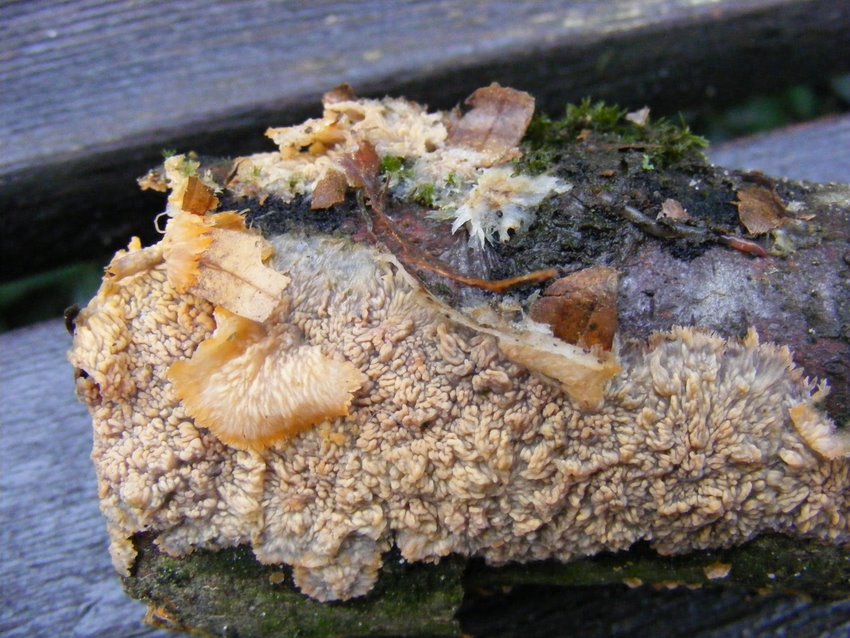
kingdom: Fungi
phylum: Basidiomycota
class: Agaricomycetes
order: Polyporales
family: Meruliaceae
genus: Phlebia
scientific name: Phlebia radiata
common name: stråle-åresvamp
